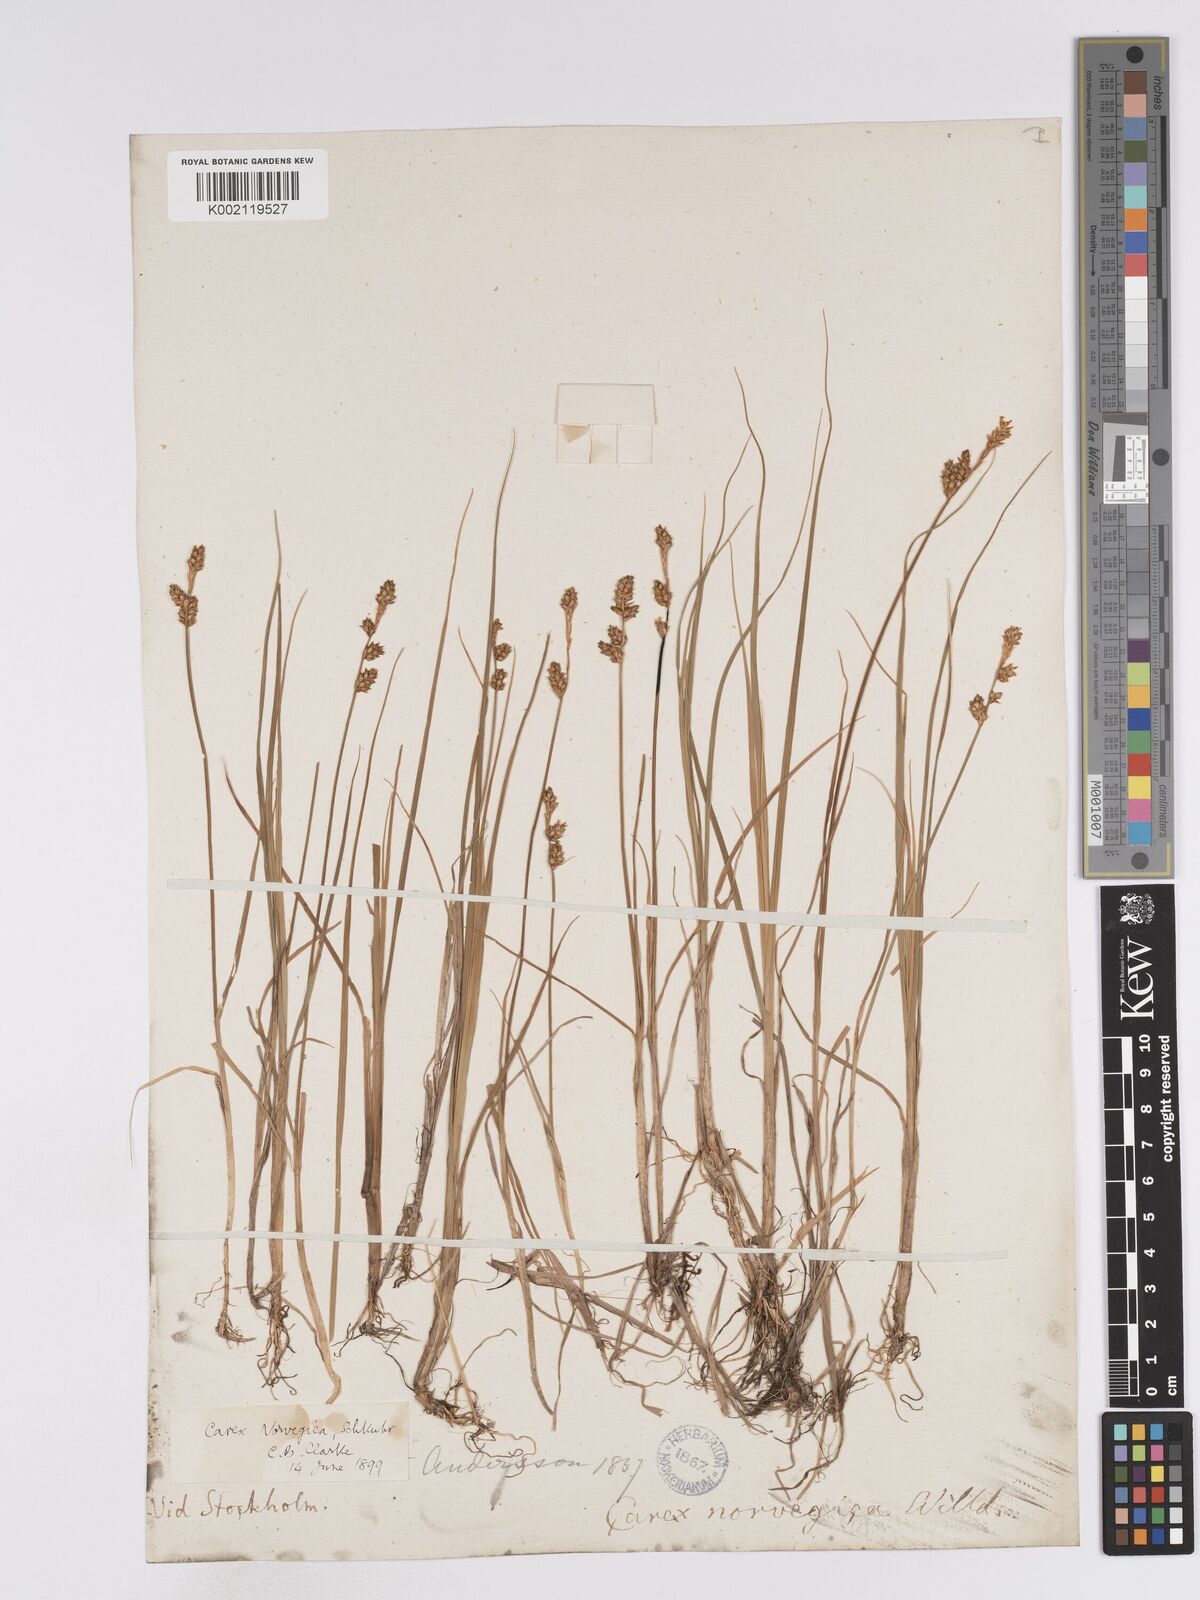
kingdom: Plantae
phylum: Tracheophyta
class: Liliopsida
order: Poales
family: Cyperaceae
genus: Carex
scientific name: Carex mackenziei
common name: Mackenzie's sedge
